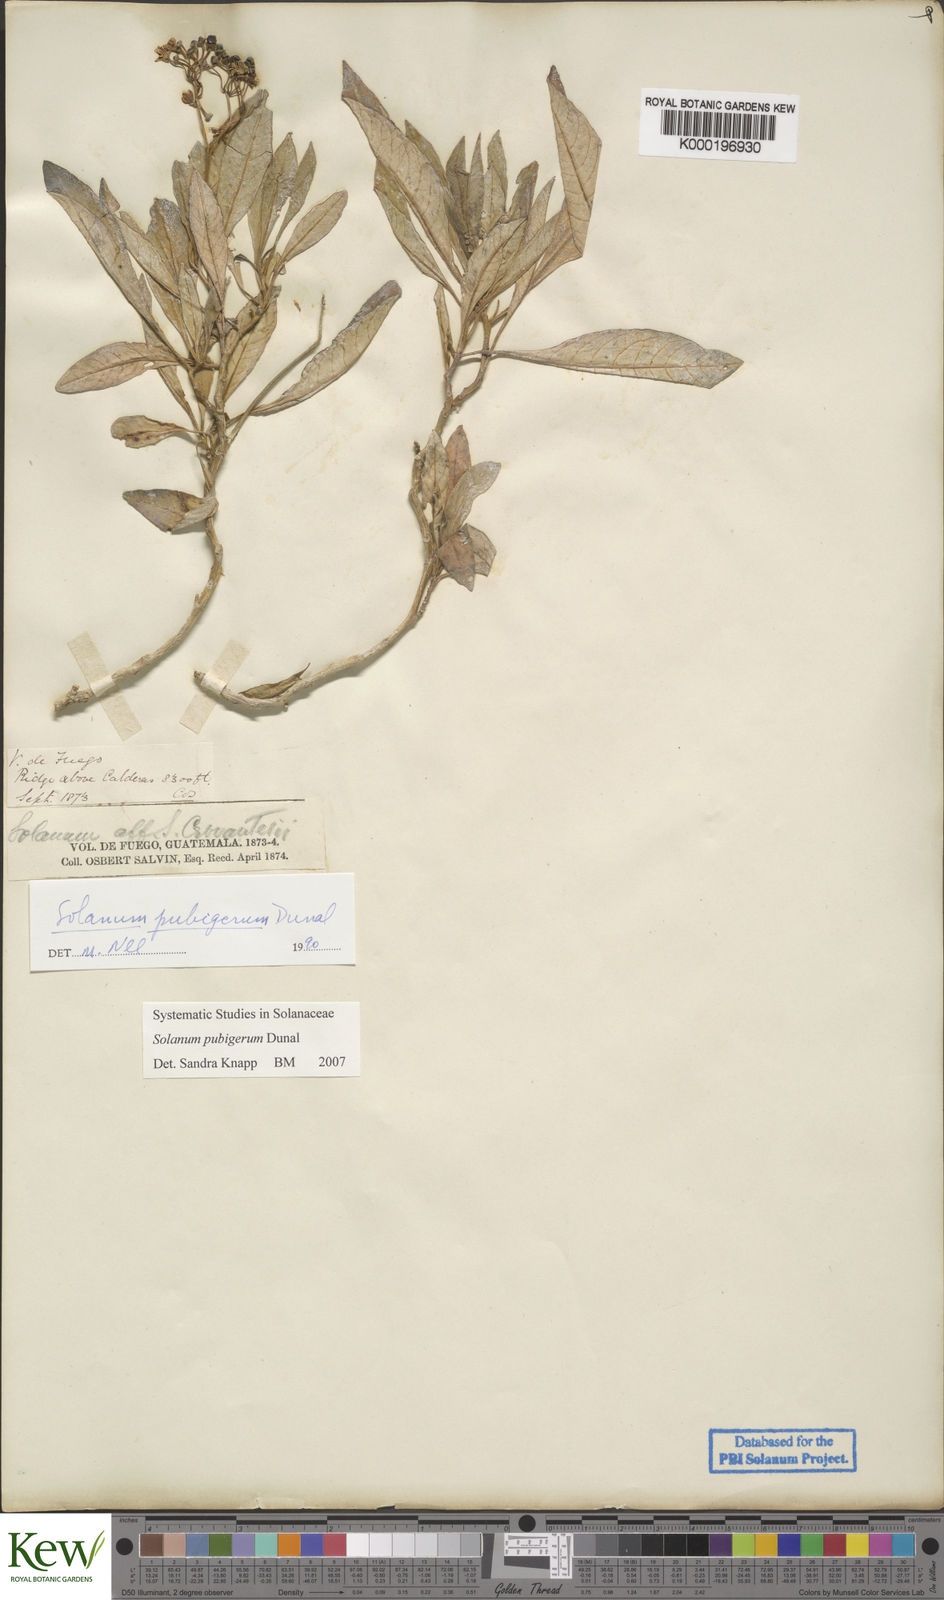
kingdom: Plantae
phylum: Tracheophyta
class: Magnoliopsida
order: Solanales
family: Solanaceae
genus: Solanum
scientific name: Solanum pubigerum
